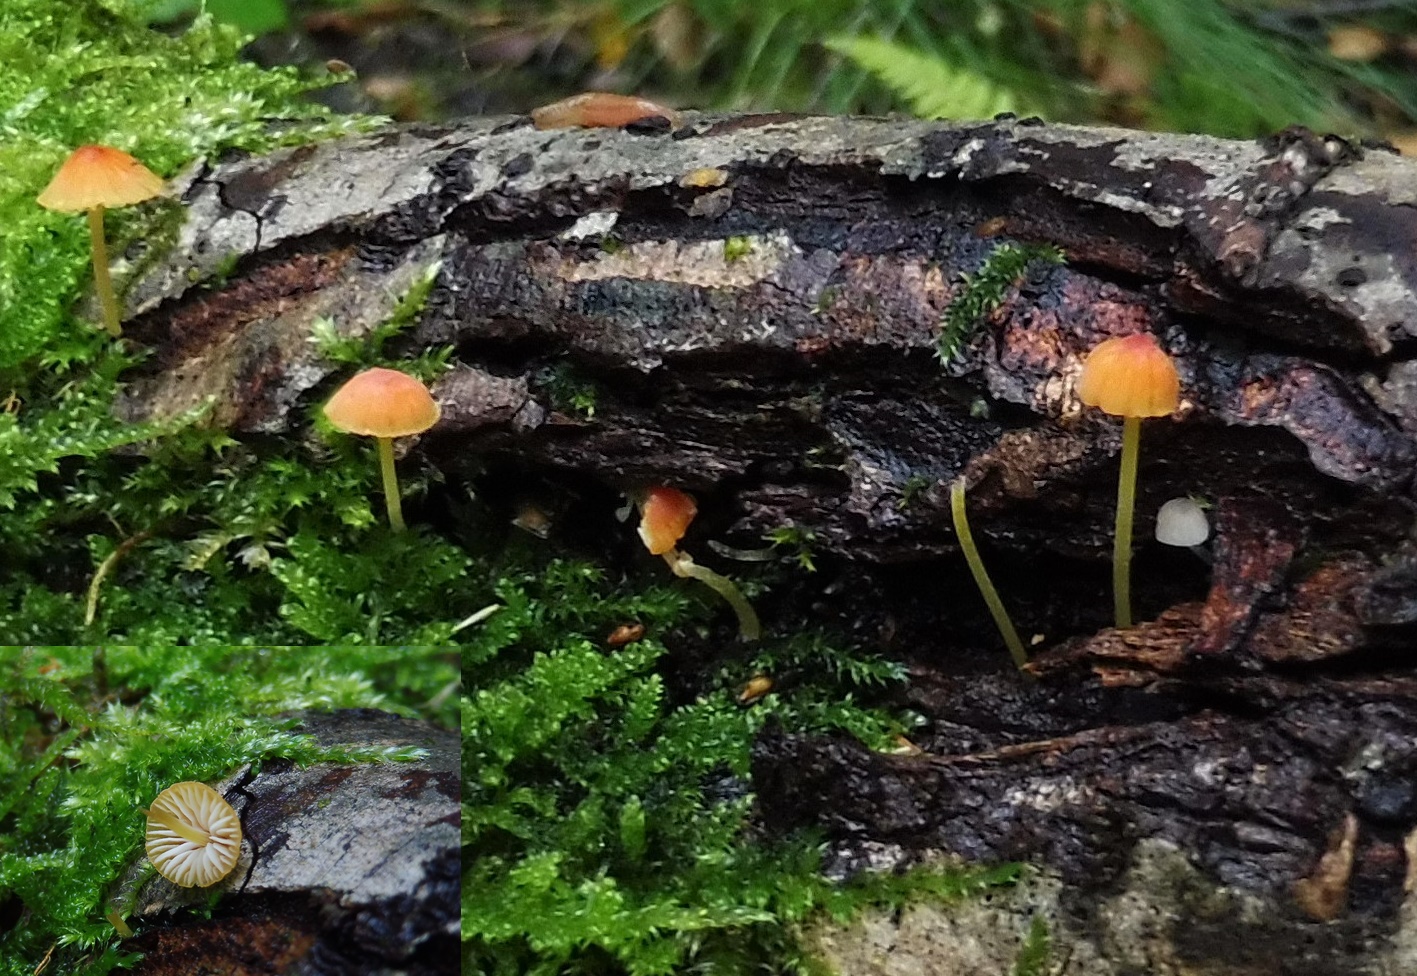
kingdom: Fungi
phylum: Basidiomycota
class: Agaricomycetes
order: Agaricales
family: Mycenaceae
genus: Mycena
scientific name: Mycena acicula
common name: orange huesvamp
